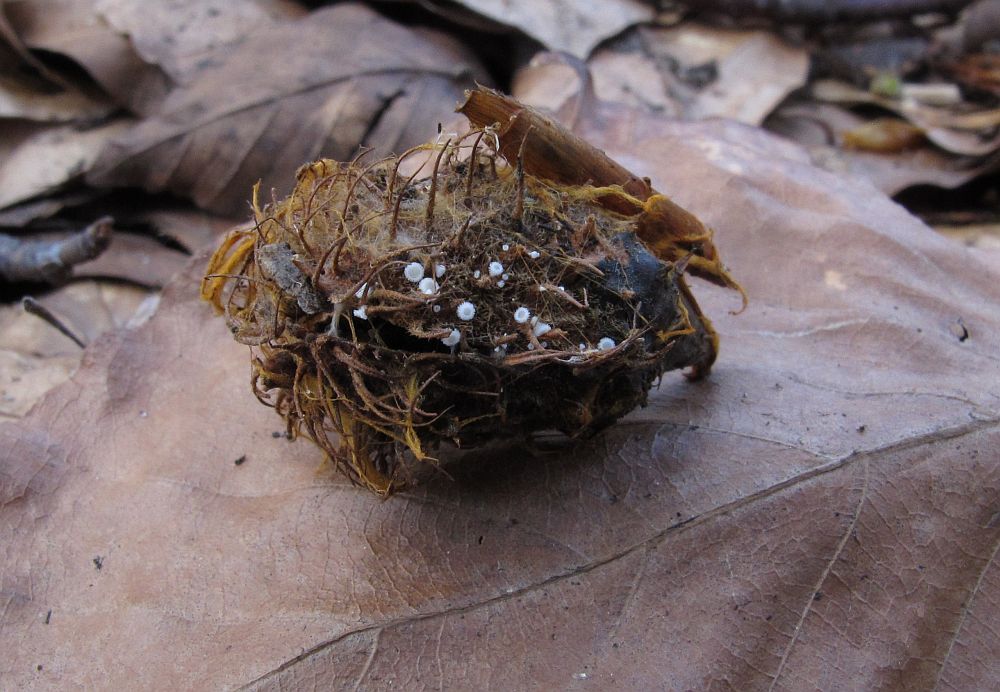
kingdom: Fungi
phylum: Ascomycota
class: Leotiomycetes
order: Helotiales
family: Lachnaceae
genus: Lachnum
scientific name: Lachnum virgineum
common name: jomfru-frynseskive
